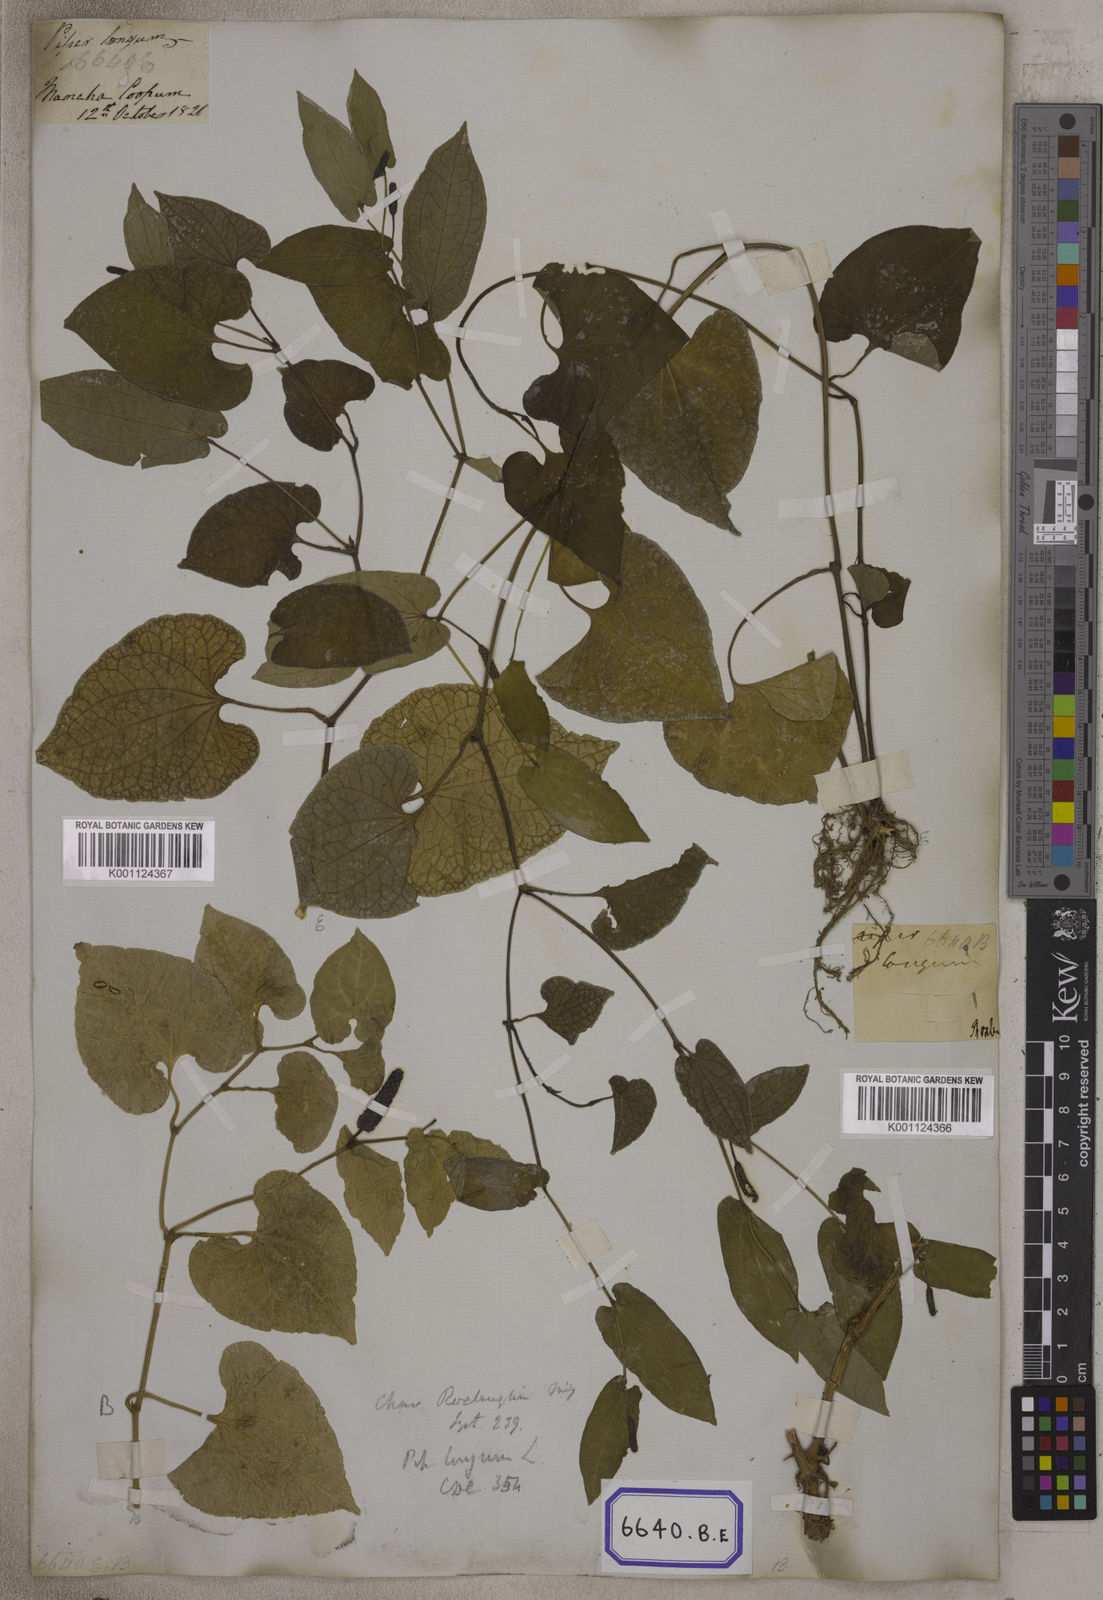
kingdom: Plantae
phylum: Tracheophyta
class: Magnoliopsida
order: Piperales
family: Piperaceae
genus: Piper
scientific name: Piper longum
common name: Long pepper
